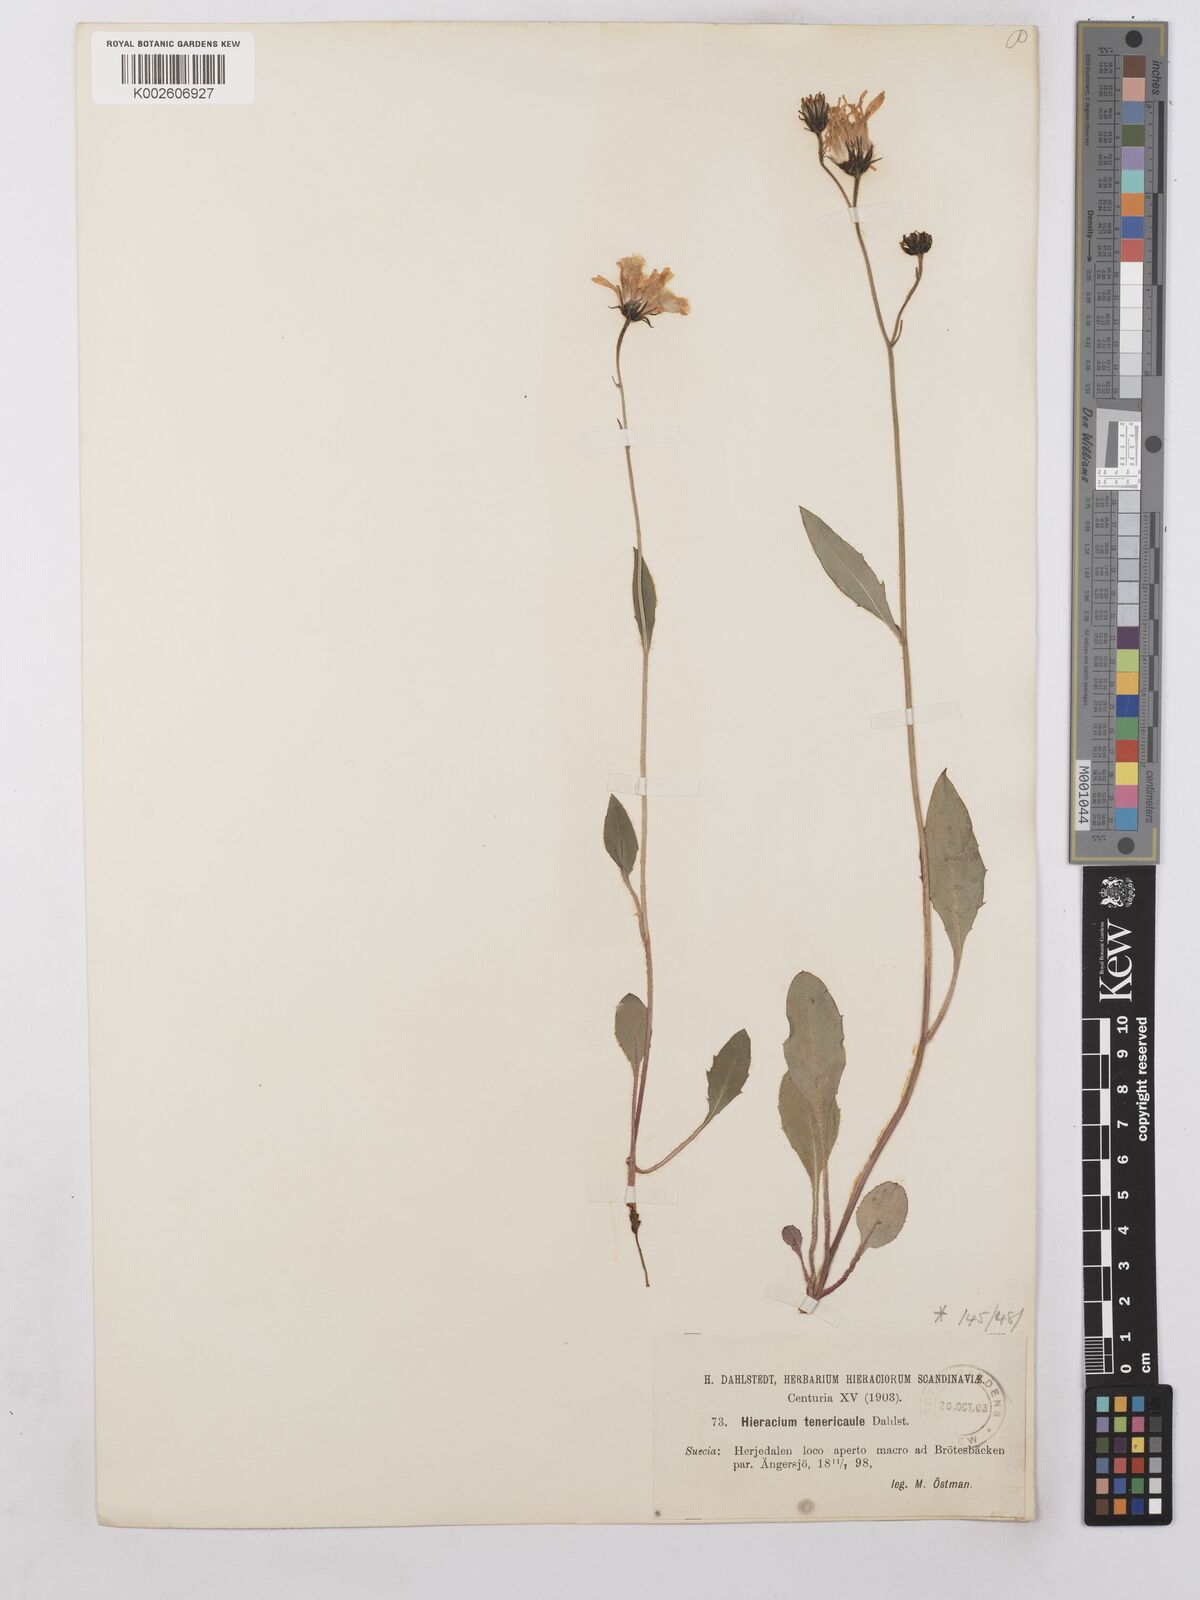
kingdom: Plantae
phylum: Tracheophyta
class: Magnoliopsida
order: Asterales
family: Asteraceae
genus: Hieracium
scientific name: Hieracium levicaule
